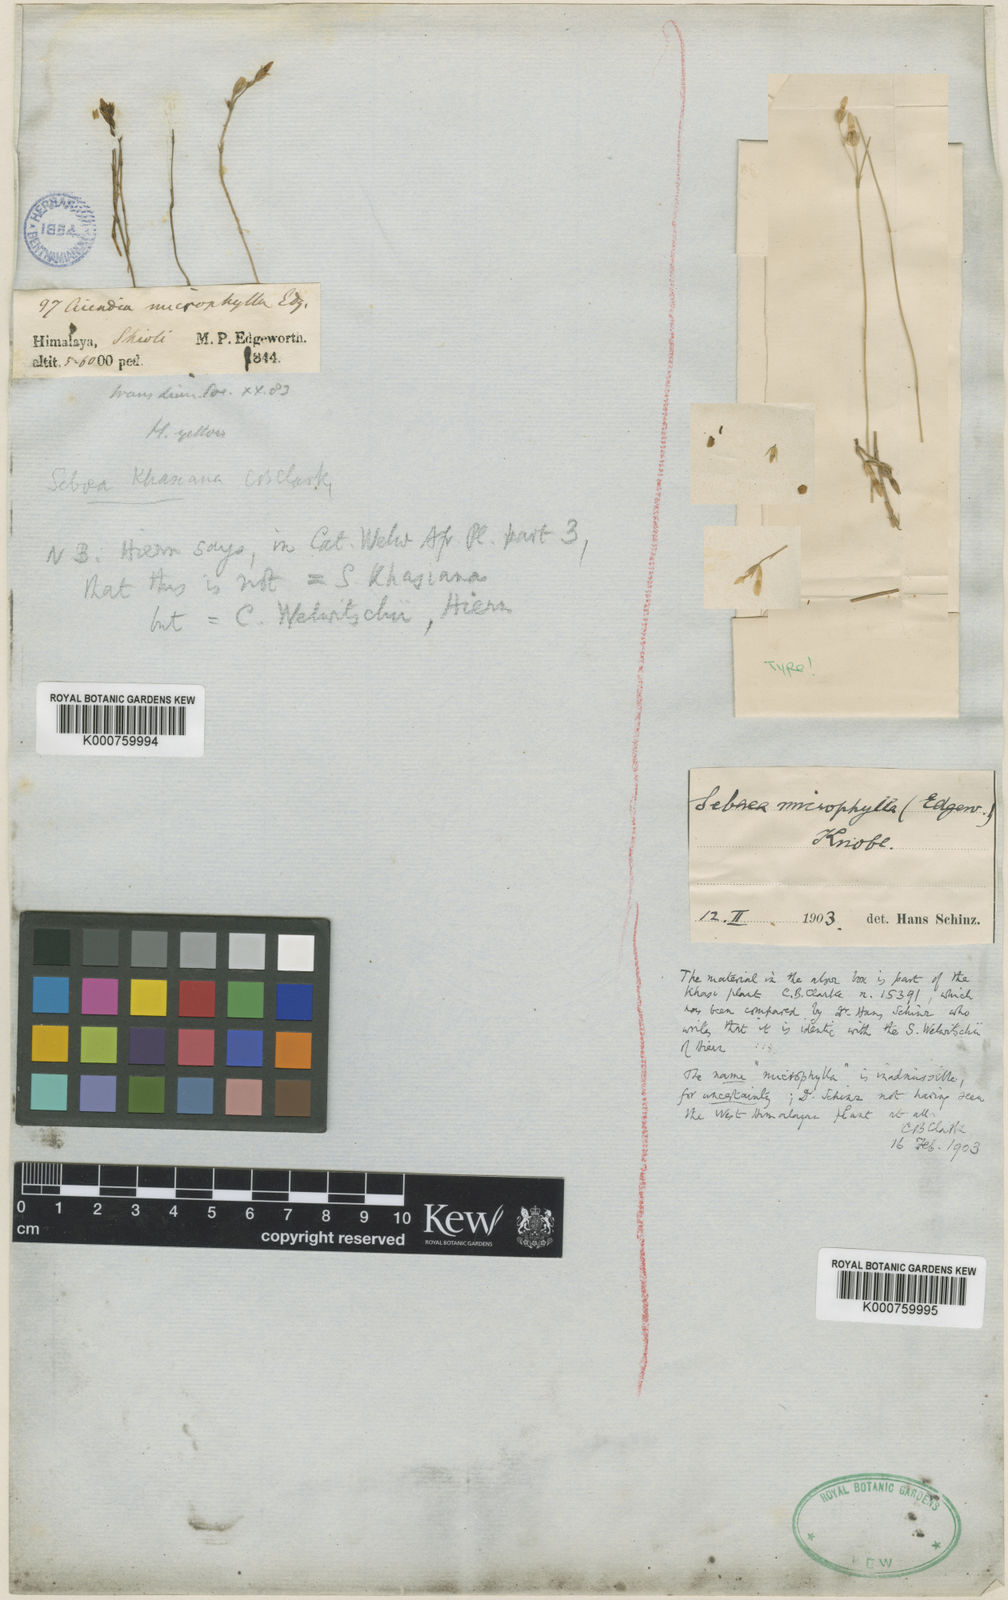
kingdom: Plantae
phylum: Tracheophyta
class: Magnoliopsida
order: Gentianales
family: Gentianaceae
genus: Sebaea
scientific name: Sebaea microphylla
